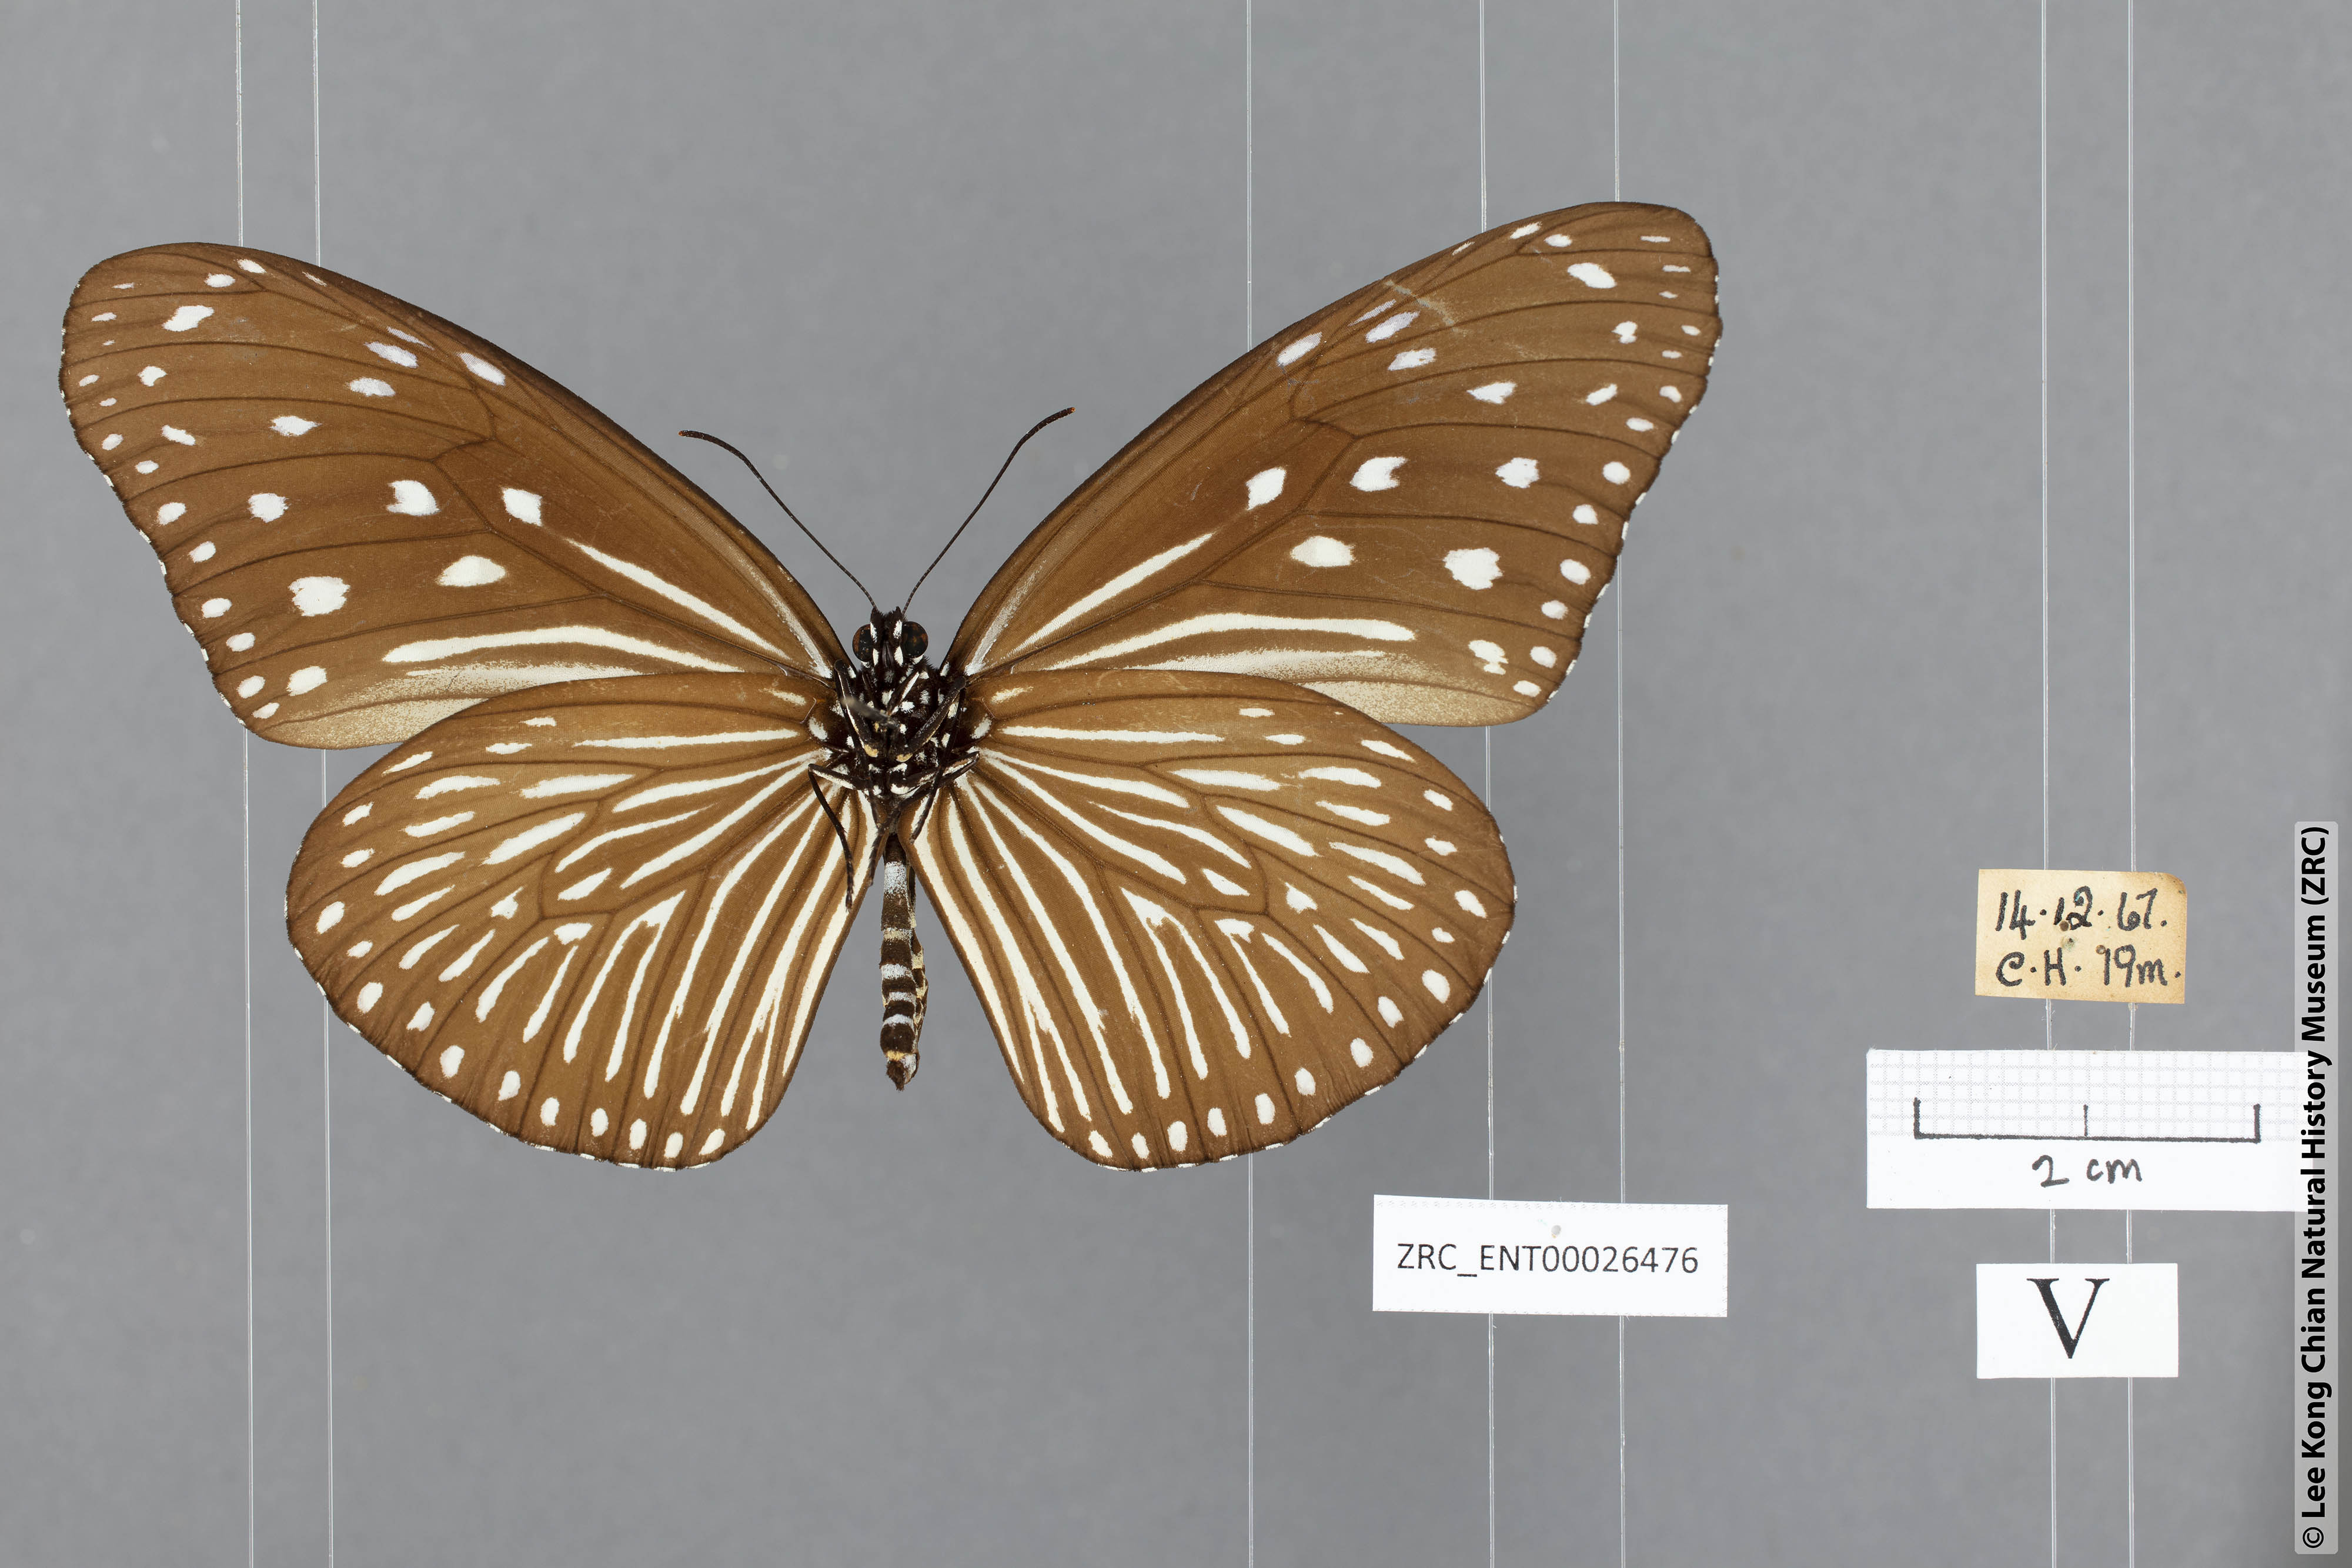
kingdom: Animalia
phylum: Arthropoda
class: Insecta
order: Lepidoptera
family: Nymphalidae
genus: Euploea
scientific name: Euploea mulciber
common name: Striped blue crow butterfly
